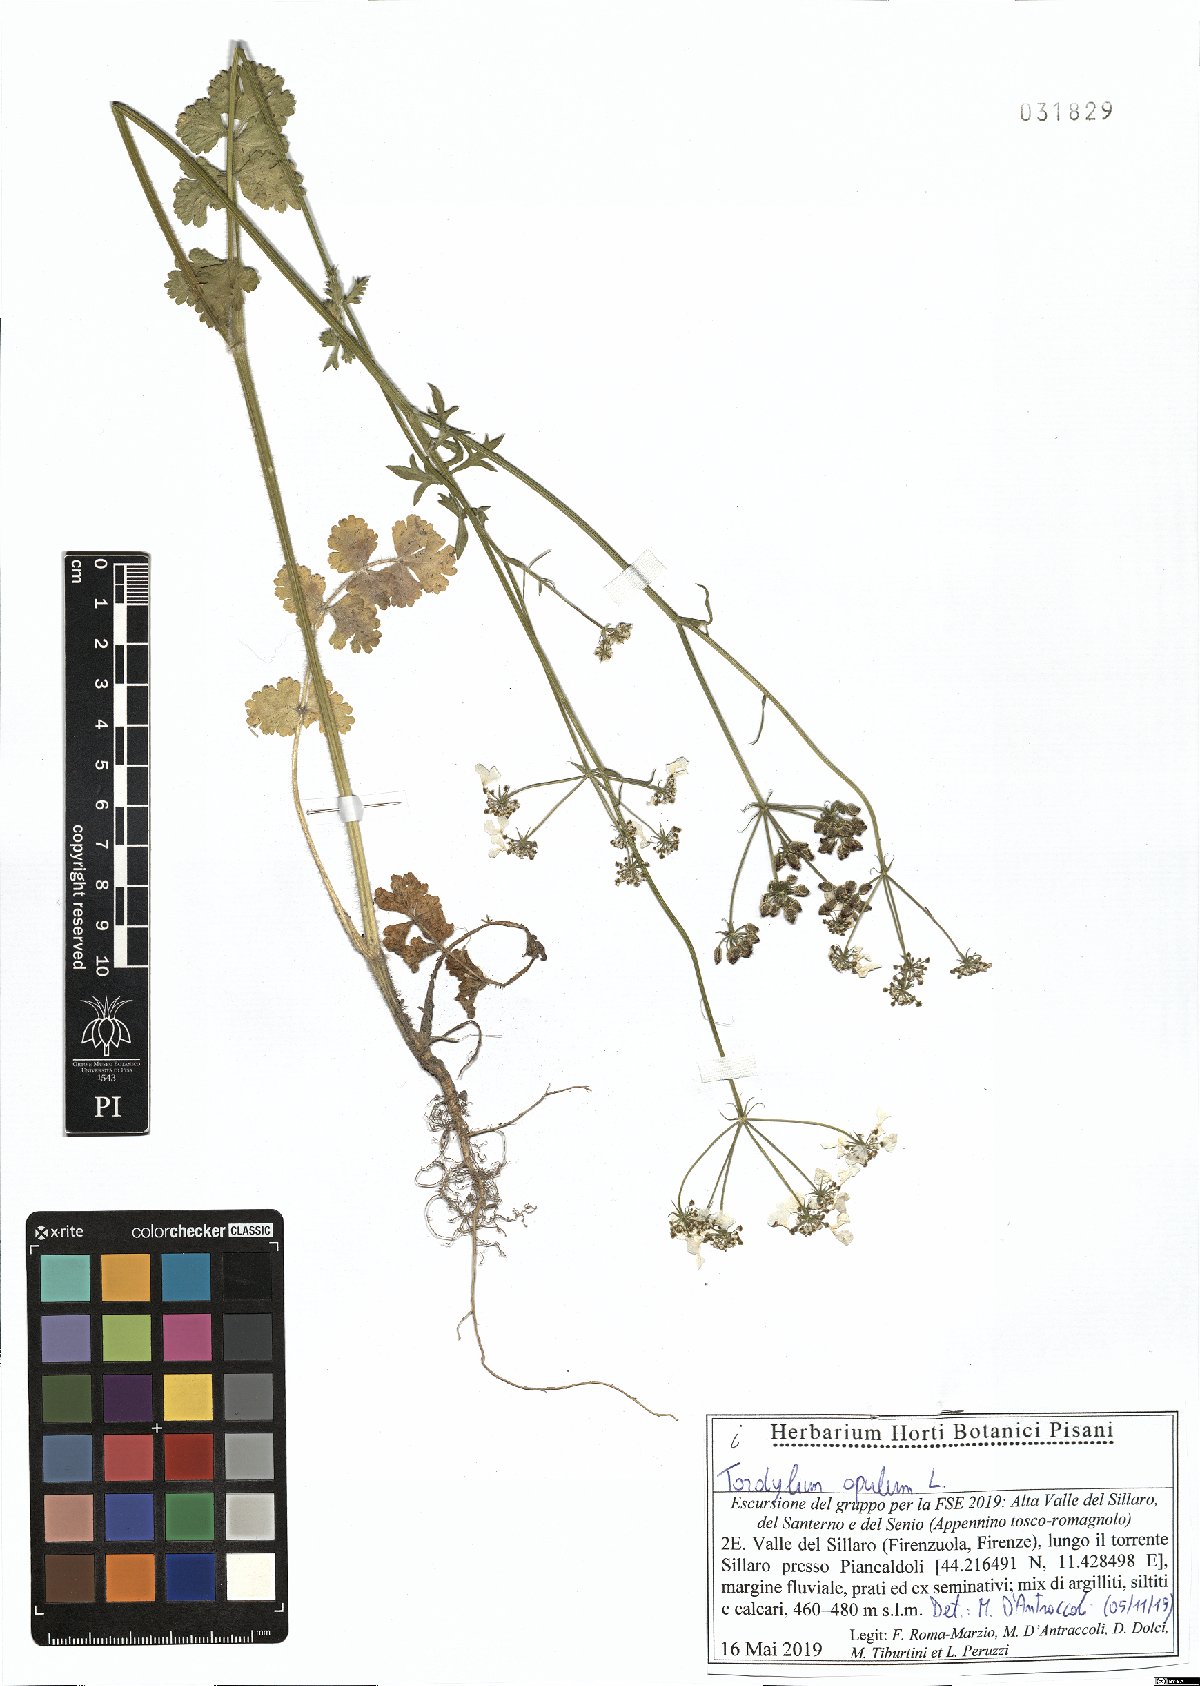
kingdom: Plantae
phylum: Tracheophyta
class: Magnoliopsida
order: Apiales
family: Apiaceae
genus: Tordylium
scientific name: Tordylium apulum
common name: Mediterranean hartwort
